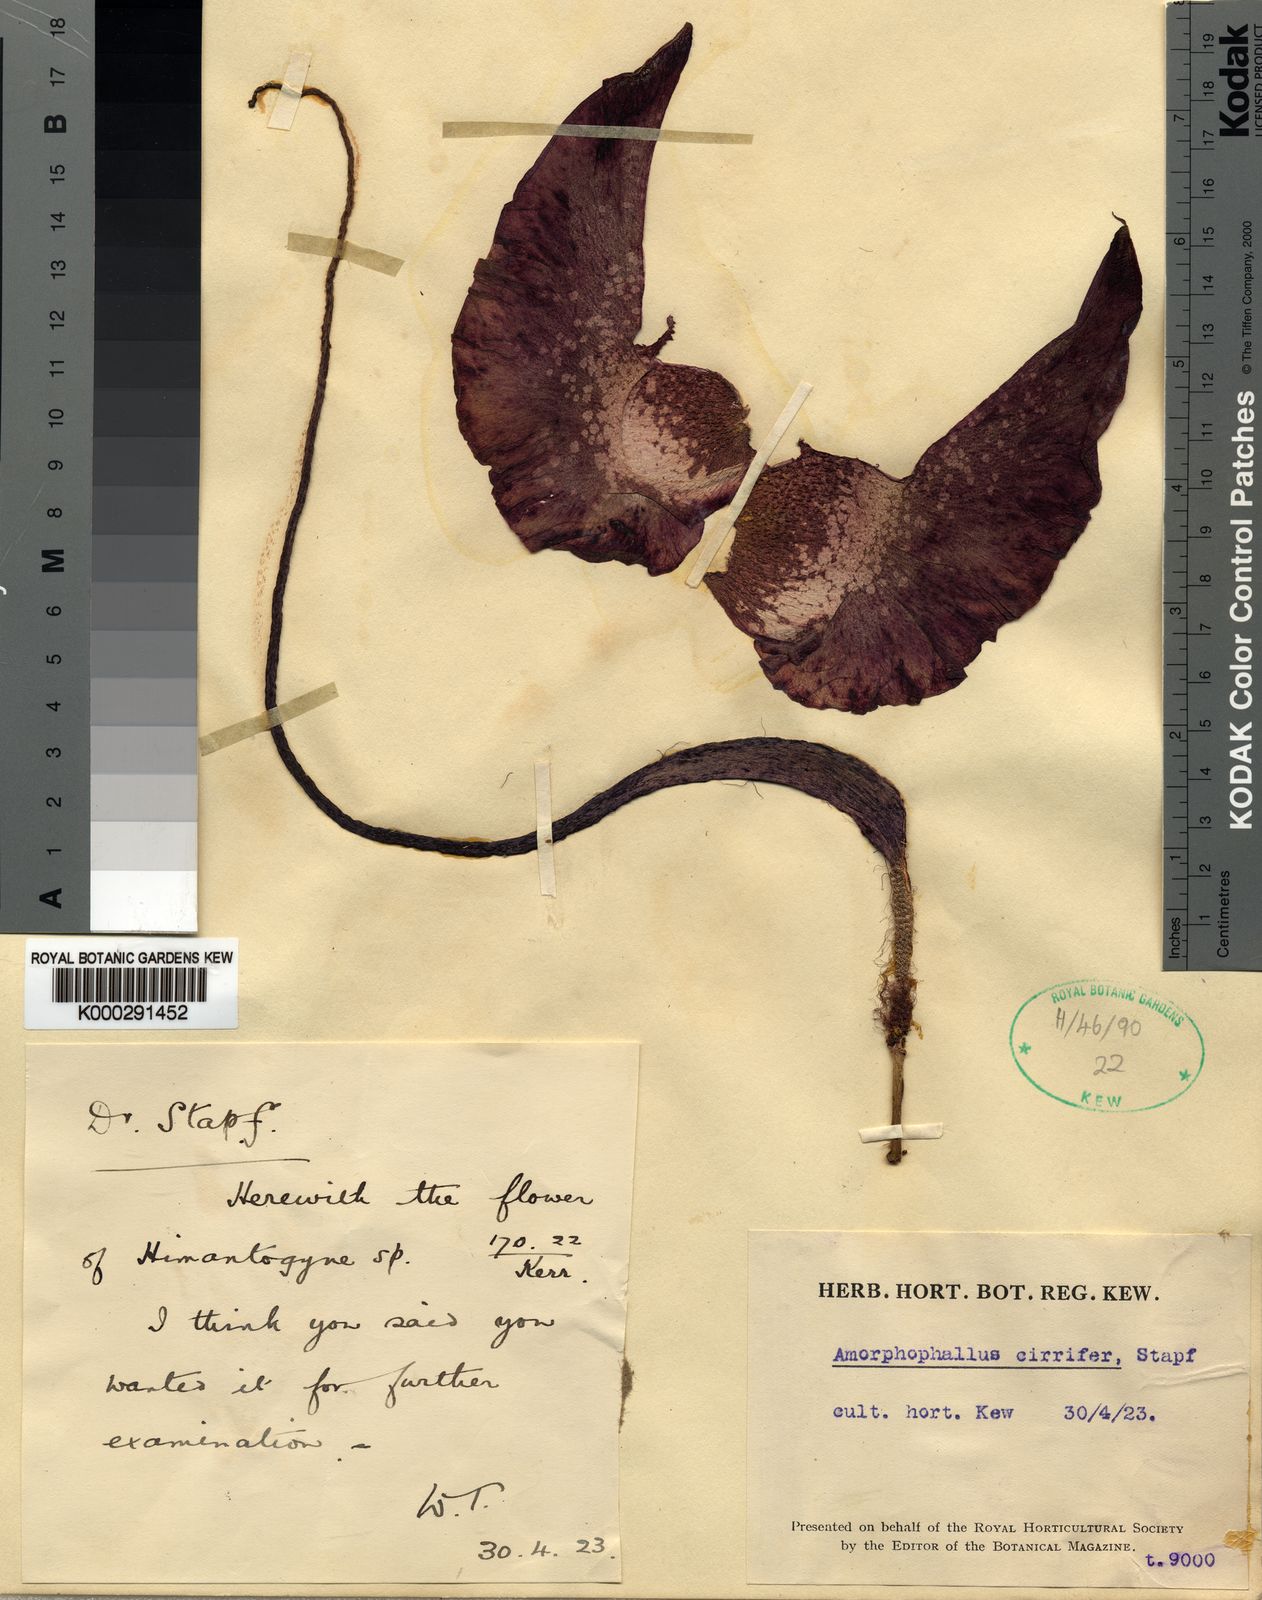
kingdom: Plantae
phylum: Tracheophyta
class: Liliopsida
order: Alismatales
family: Araceae
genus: Amorphophallus
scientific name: Amorphophallus cirrifer
